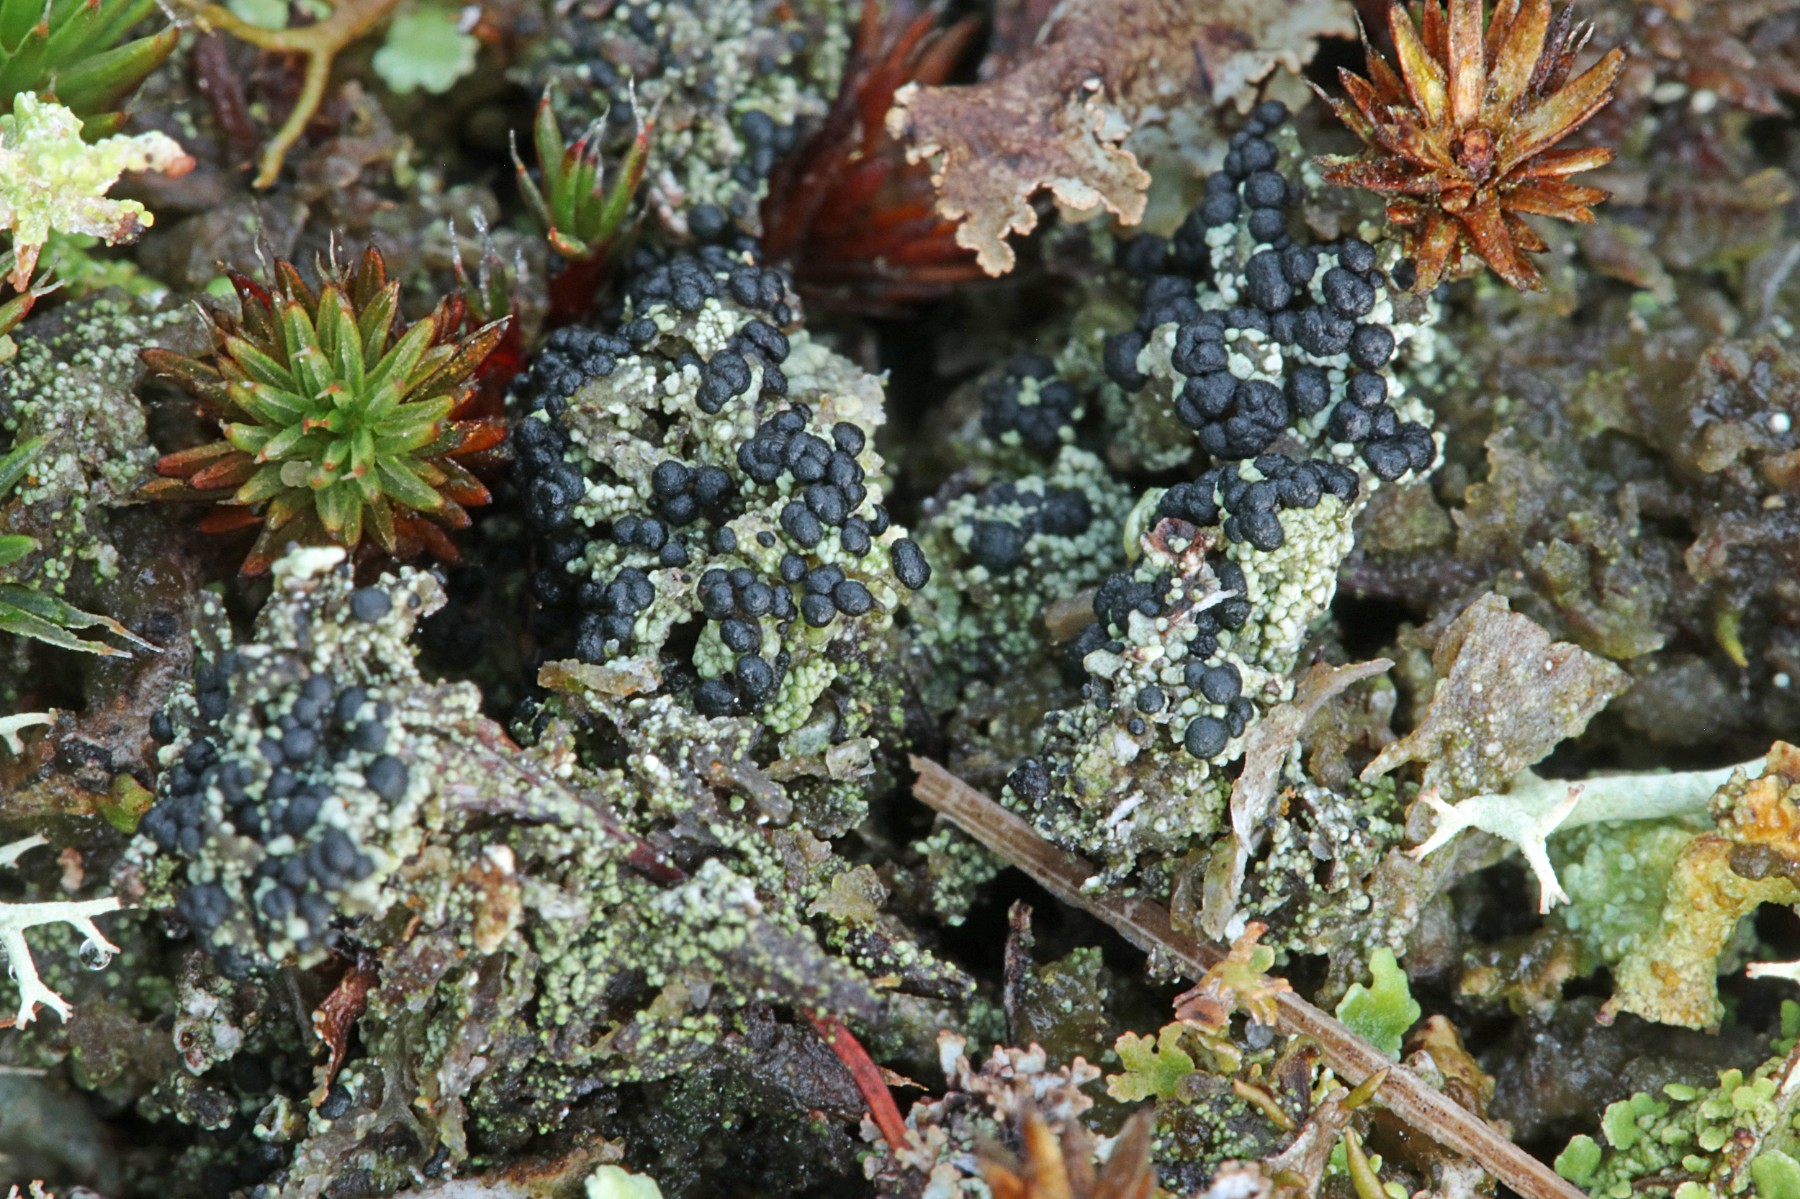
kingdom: Fungi
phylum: Ascomycota
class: Lecanoromycetes
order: Lecanorales
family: Byssolomataceae
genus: Micarea
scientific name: Micarea lignaria
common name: tørve-knaplav
